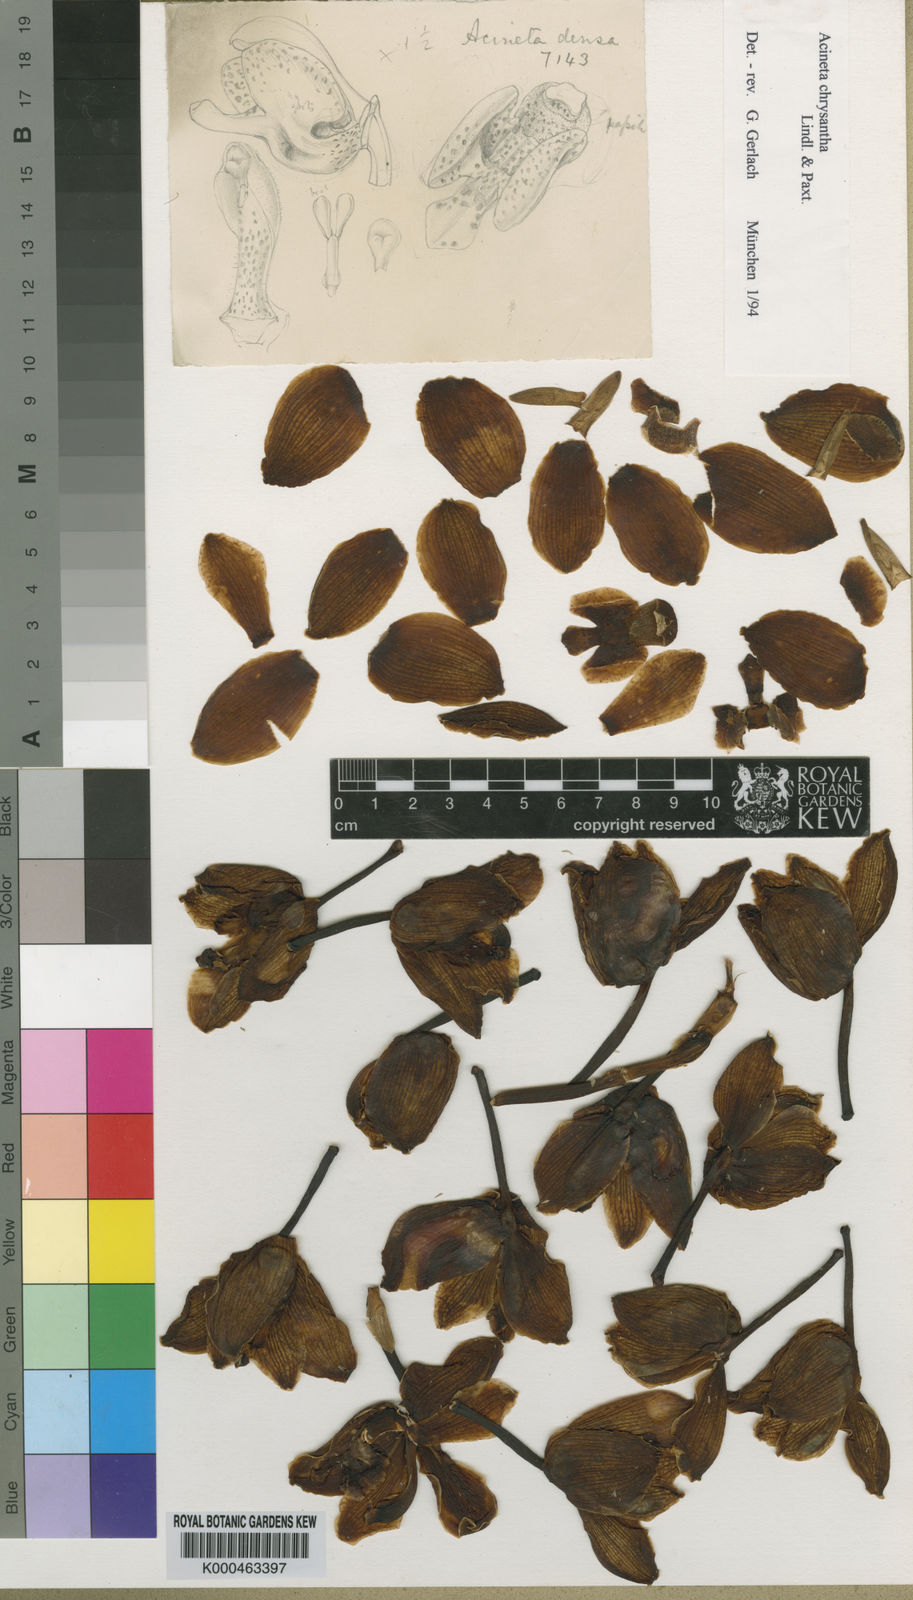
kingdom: Plantae
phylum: Tracheophyta
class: Liliopsida
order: Asparagales
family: Orchidaceae
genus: Acineta
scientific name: Acineta densa
